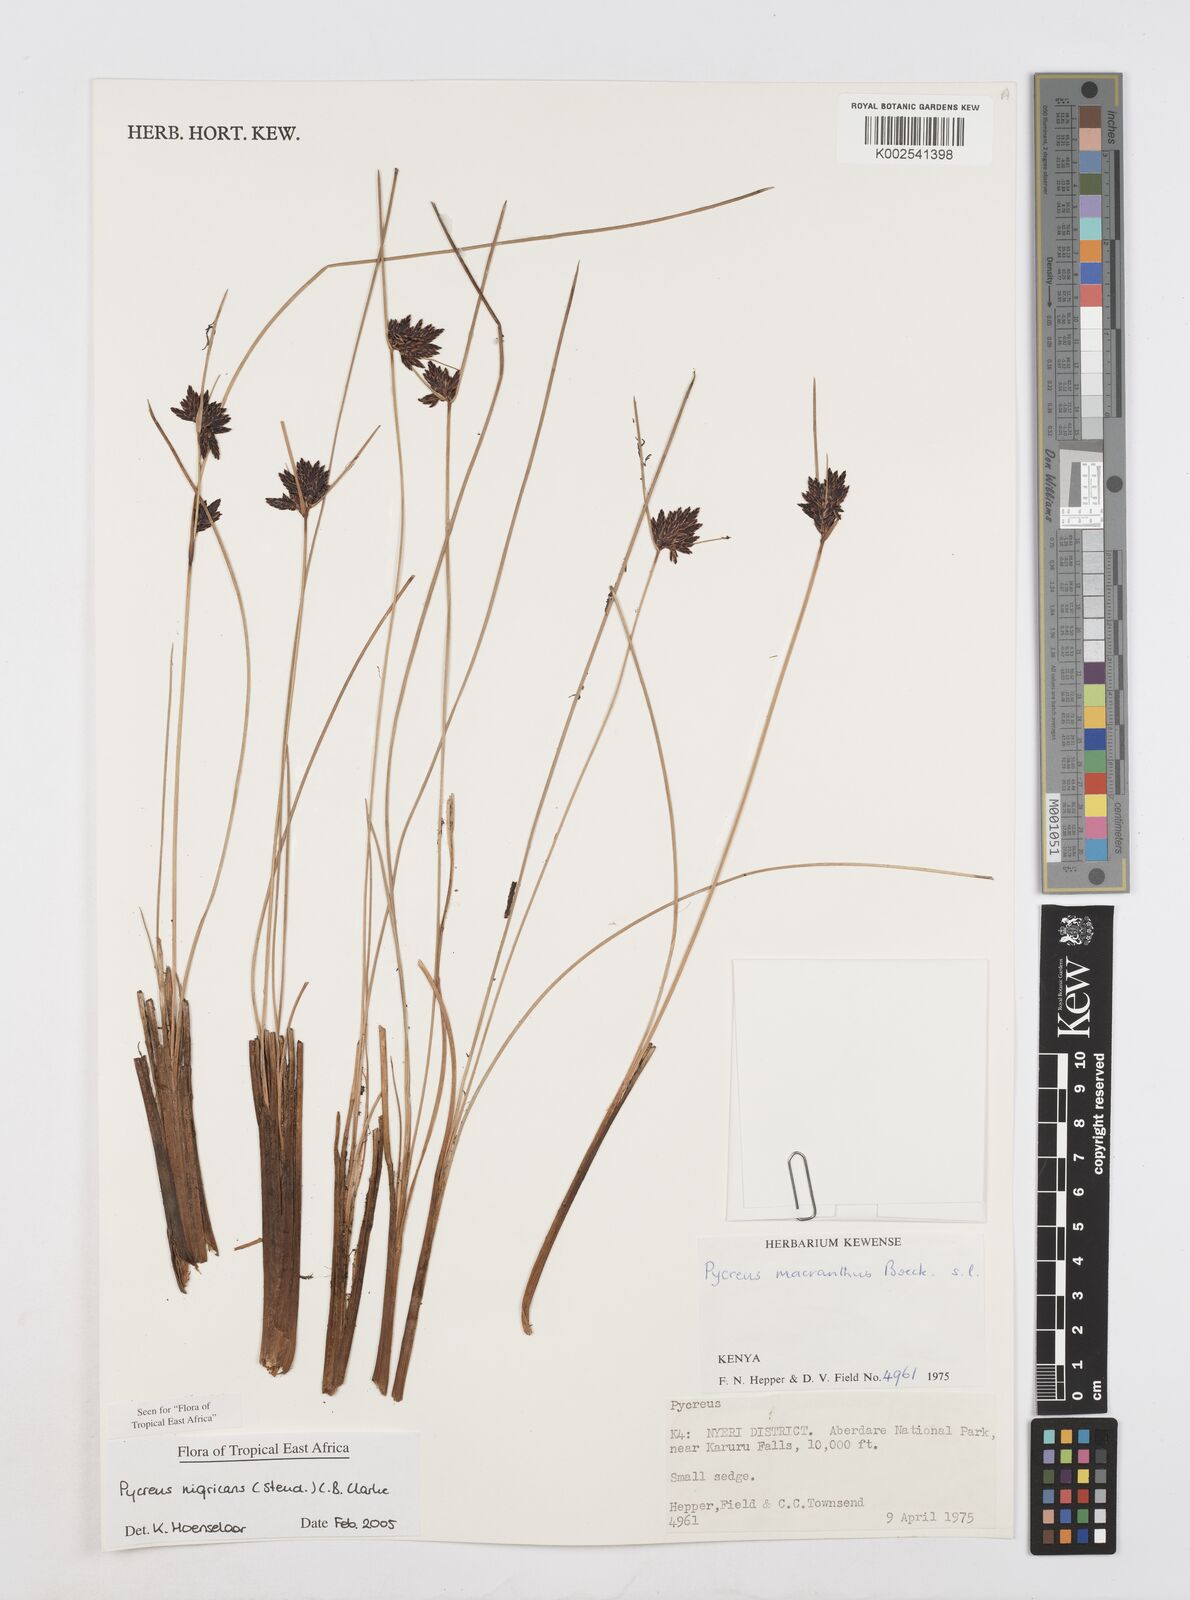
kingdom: Plantae
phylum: Tracheophyta
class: Liliopsida
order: Poales
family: Cyperaceae
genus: Cyperus
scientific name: Cyperus nigricans
